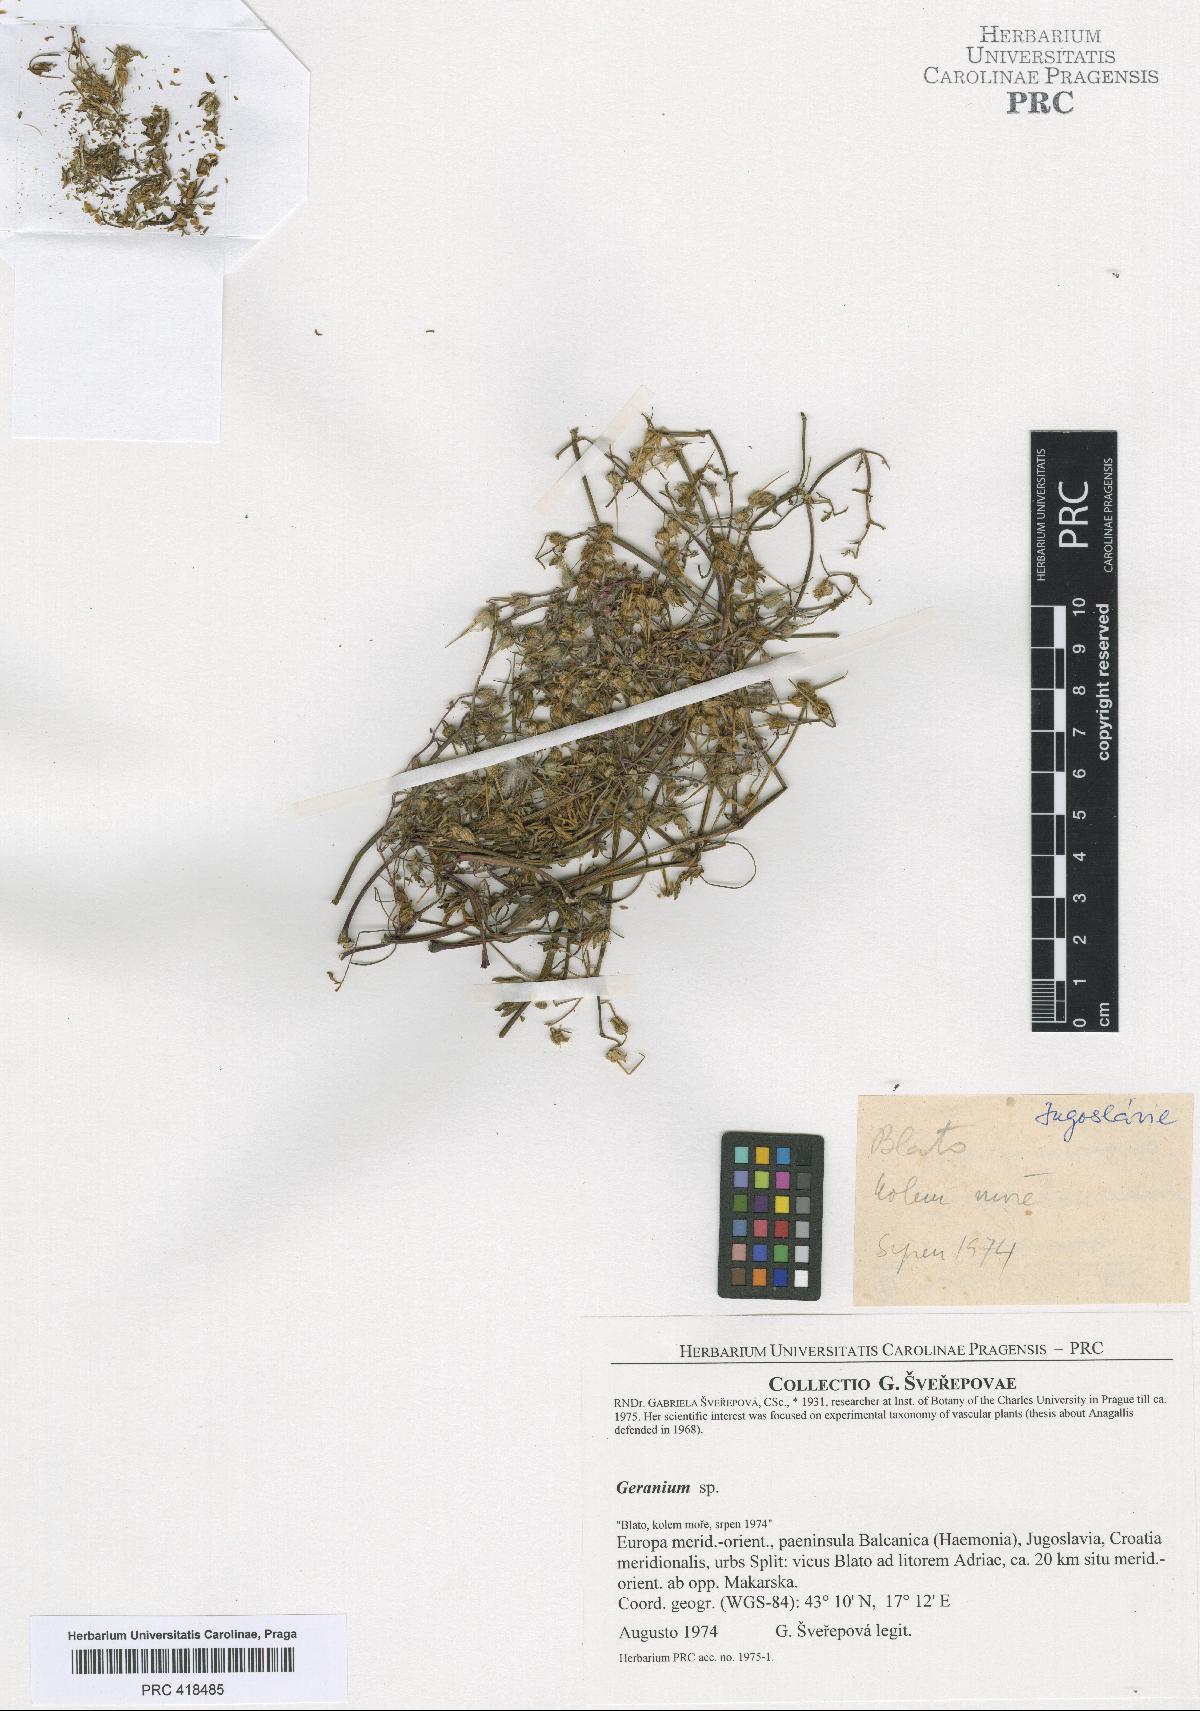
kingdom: Plantae
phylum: Tracheophyta
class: Magnoliopsida
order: Geraniales
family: Geraniaceae
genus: Geranium
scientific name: Geranium purpureum
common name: Little-robin
